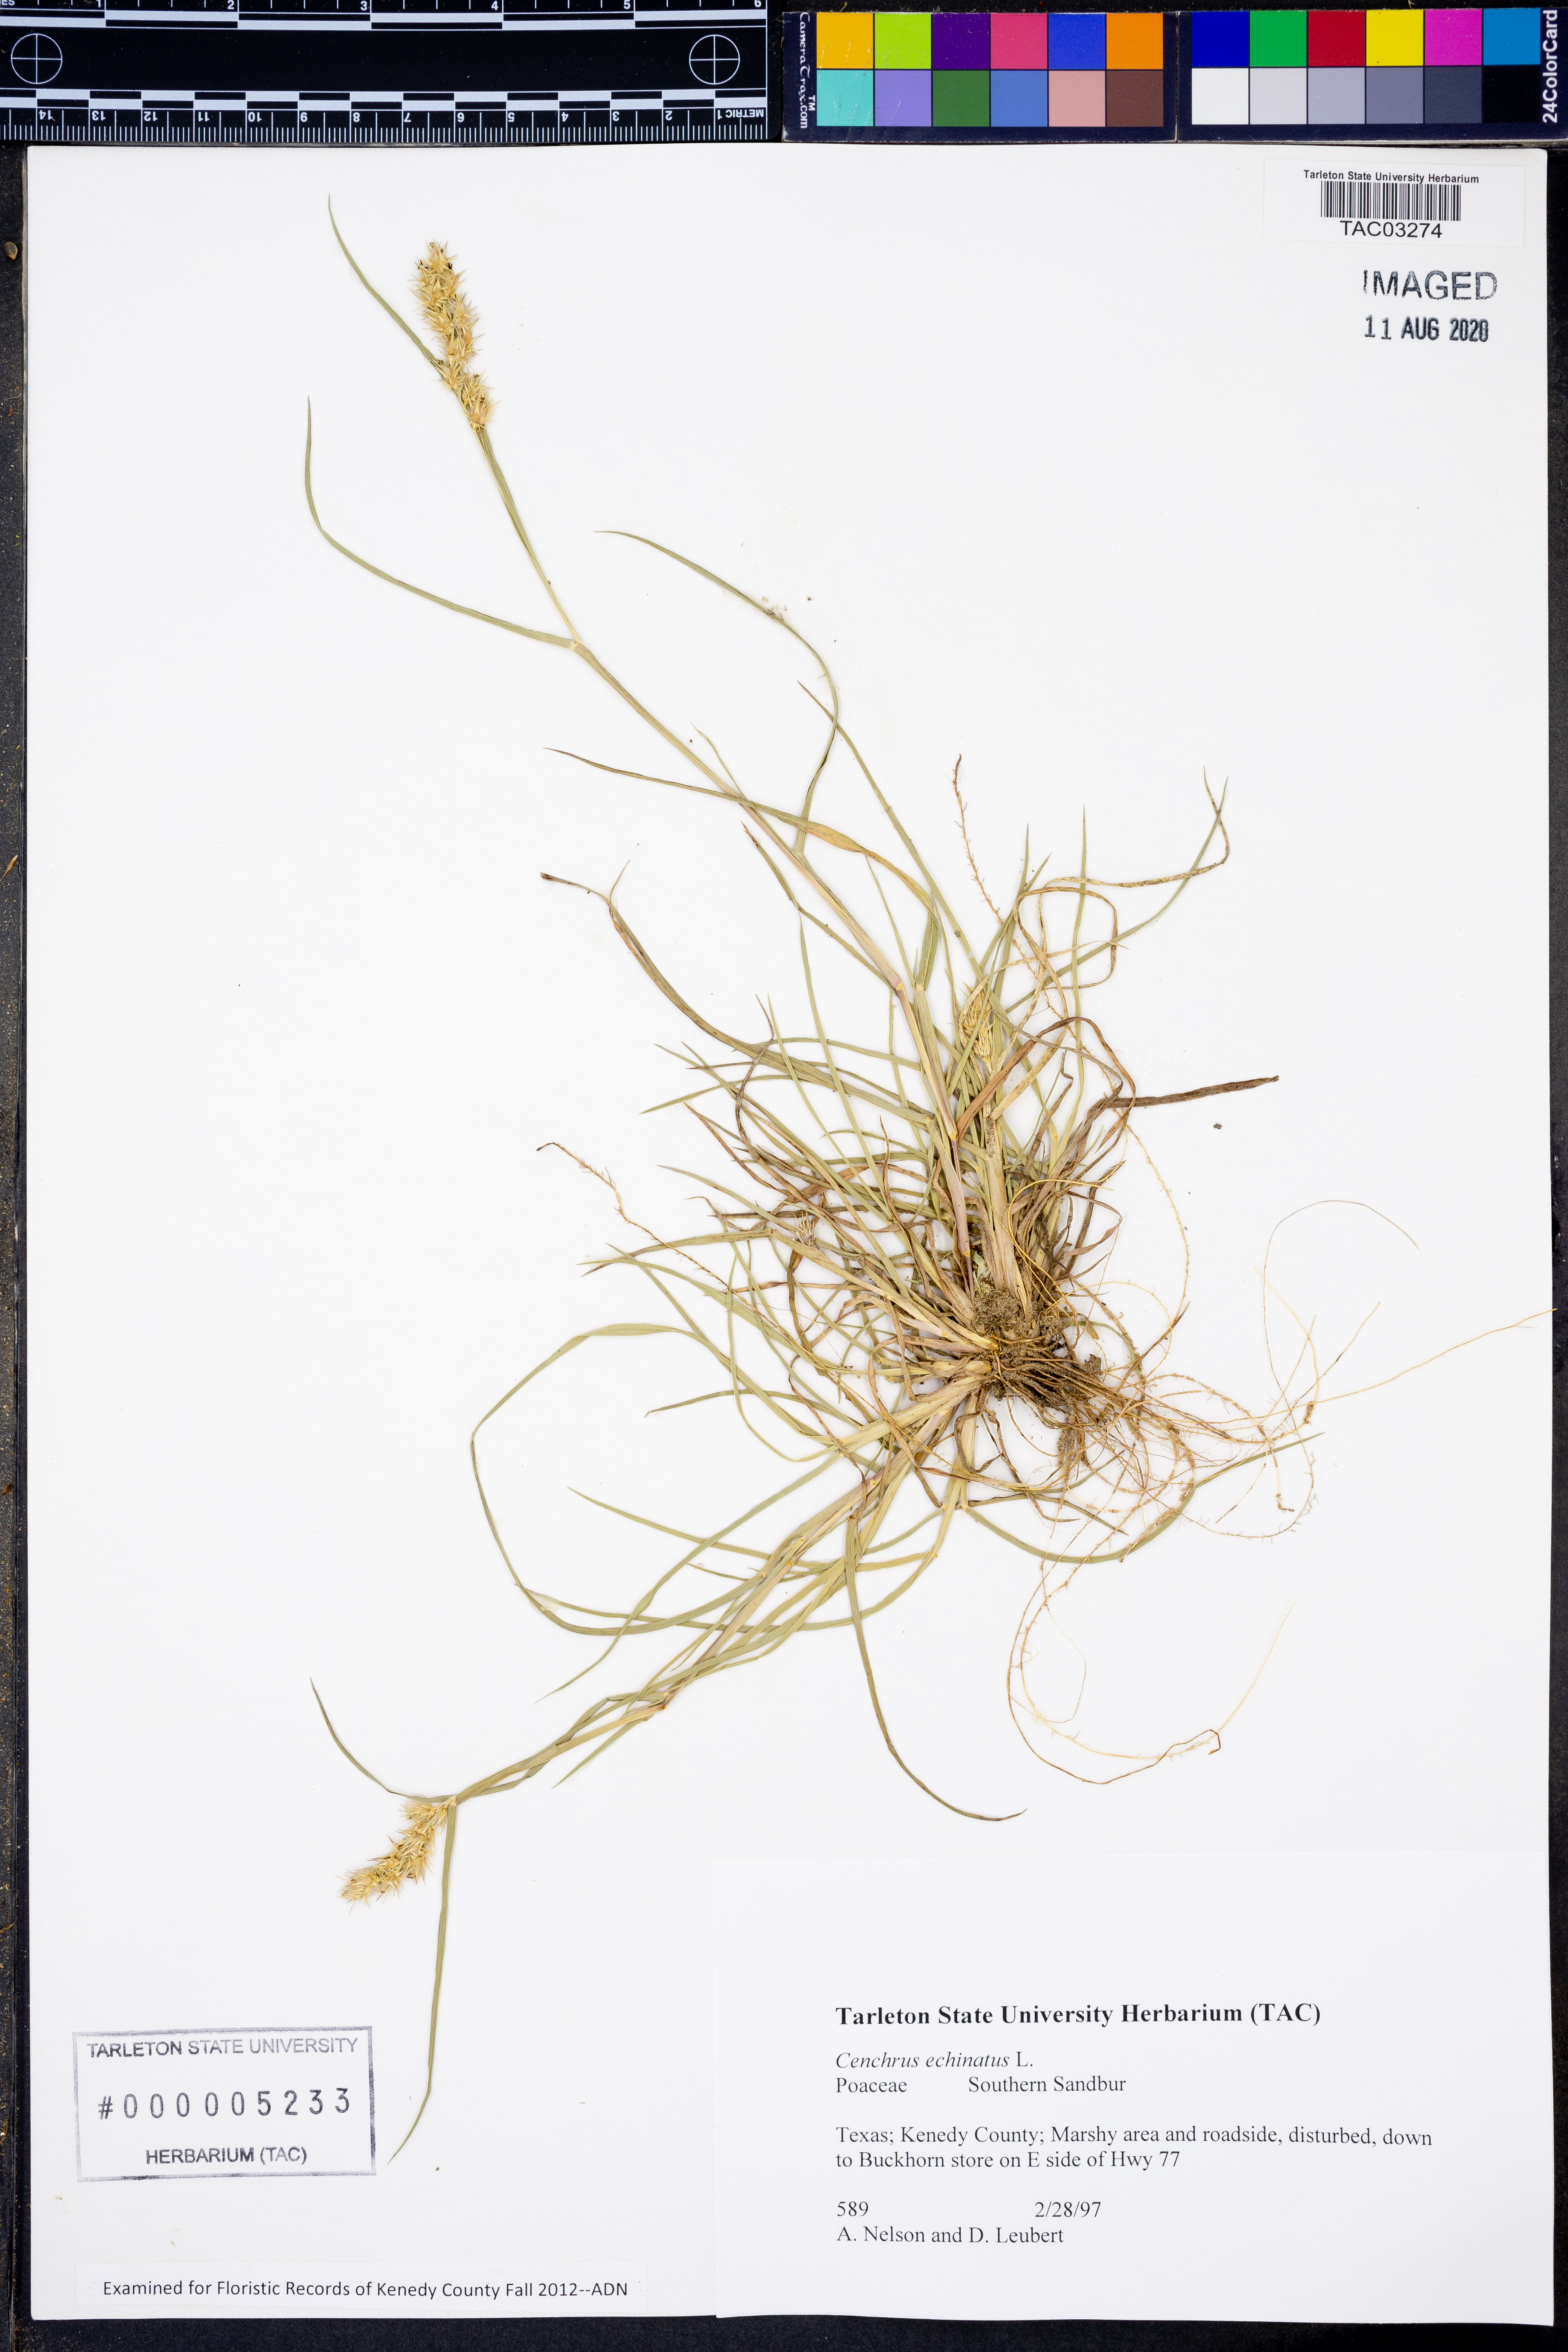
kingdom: Plantae
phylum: Tracheophyta
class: Liliopsida
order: Poales
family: Poaceae
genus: Cenchrus
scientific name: Cenchrus echinatus
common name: Southern sandbur
